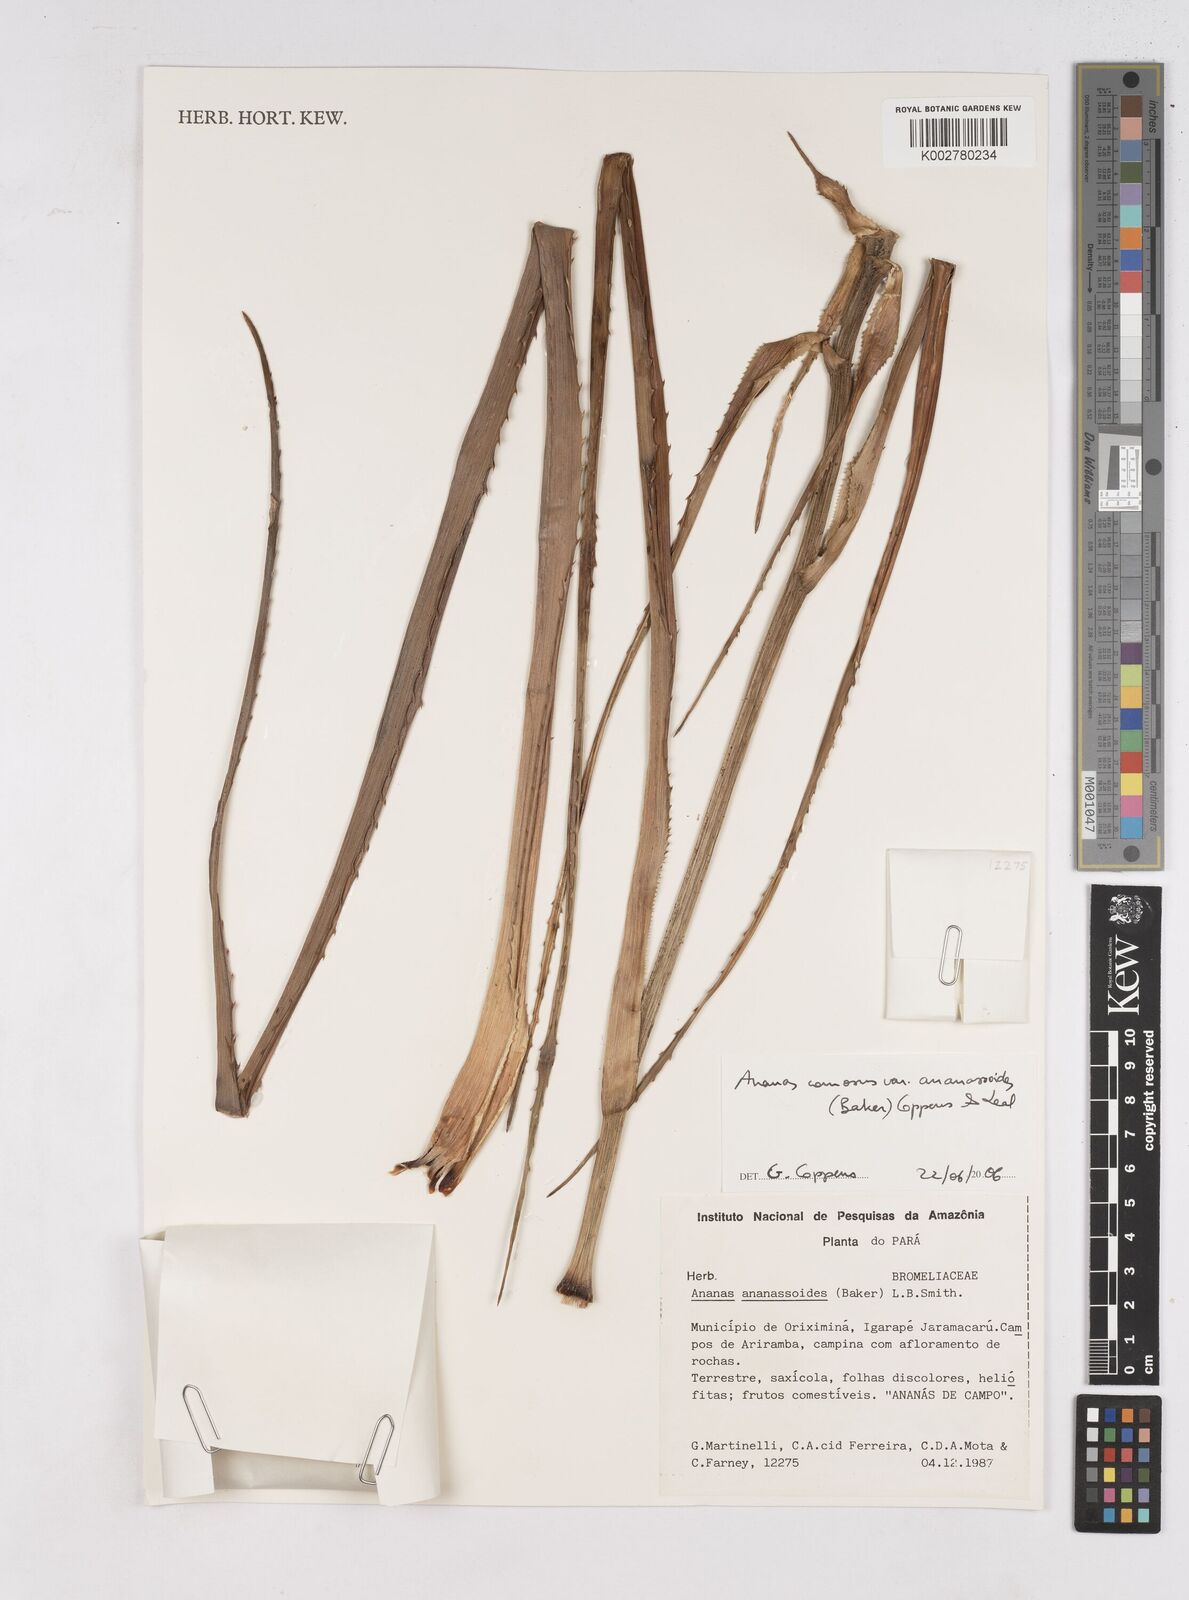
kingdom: Plantae
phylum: Tracheophyta
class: Liliopsida
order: Poales
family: Bromeliaceae
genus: Ananas
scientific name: Ananas comosus
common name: Pineapple
